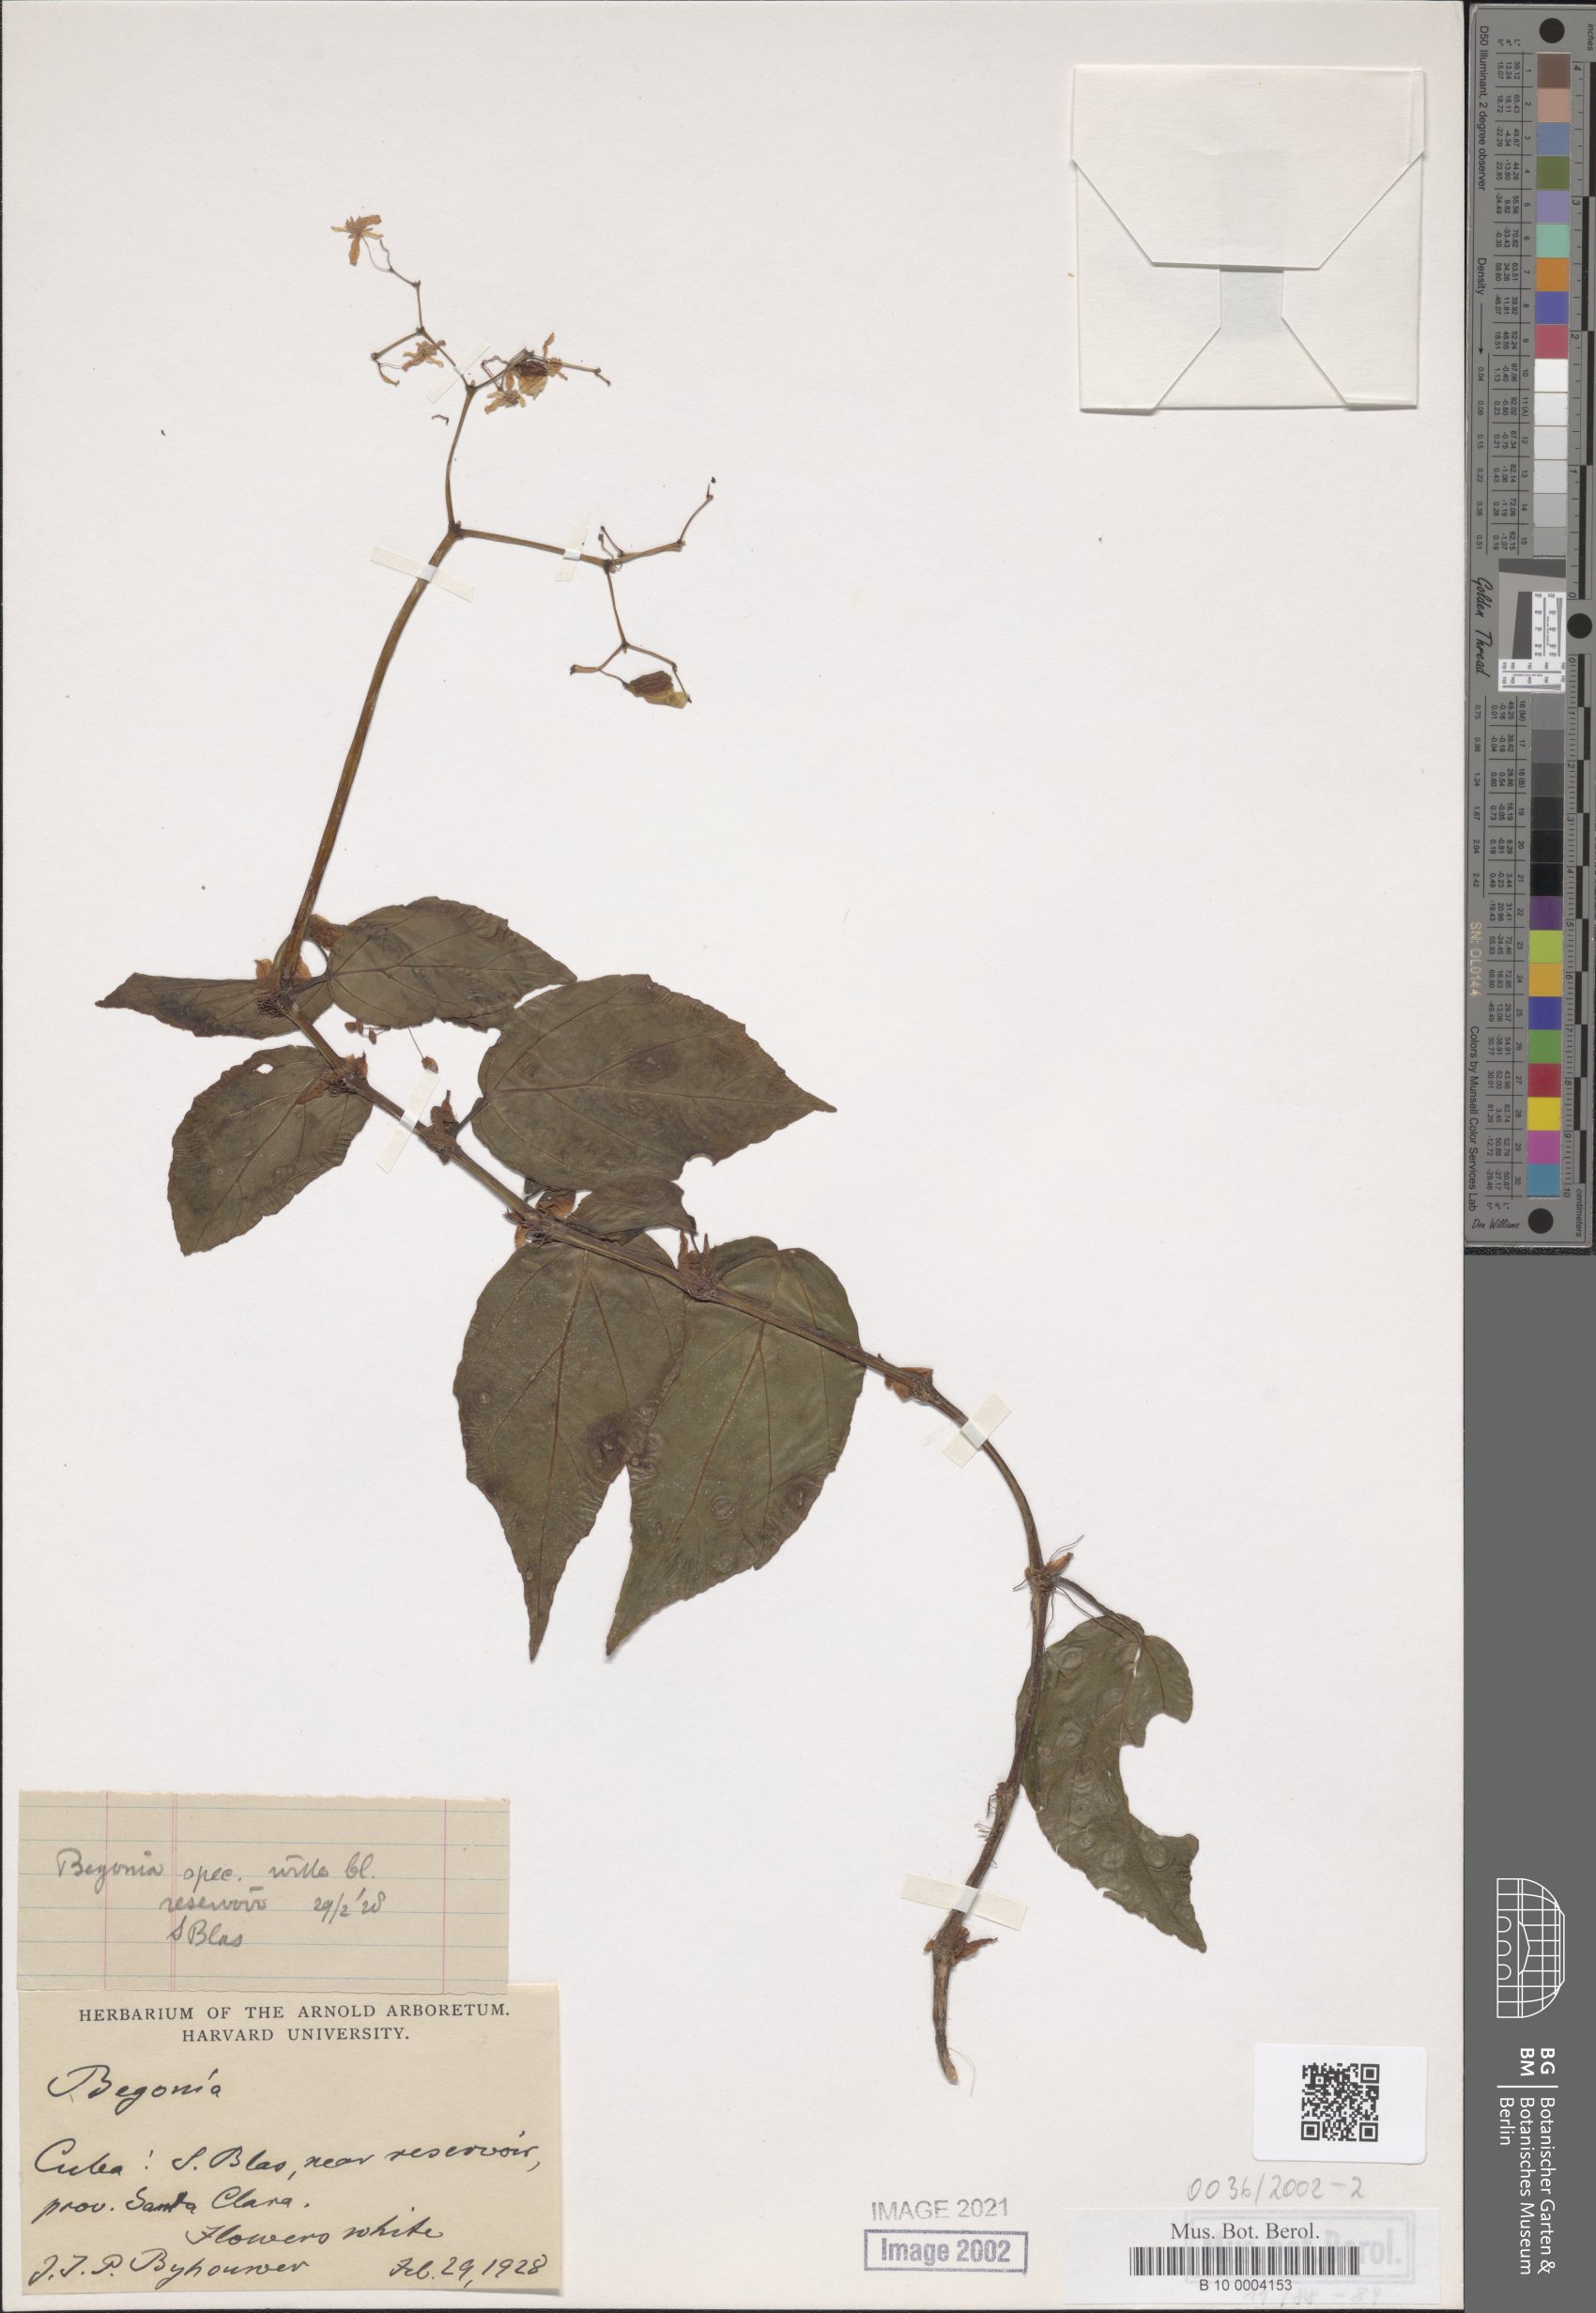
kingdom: Plantae
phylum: Tracheophyta
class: Magnoliopsida
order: Cucurbitales
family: Begoniaceae
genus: Begonia
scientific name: Begonia
